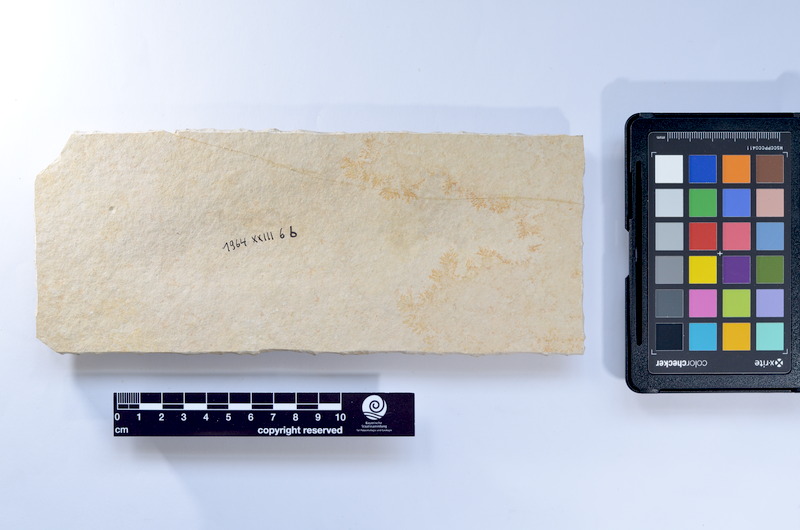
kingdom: Animalia
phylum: Chordata
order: Elopiformes
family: Anaethalionidae
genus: Anaethalion
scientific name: Anaethalion knorri
